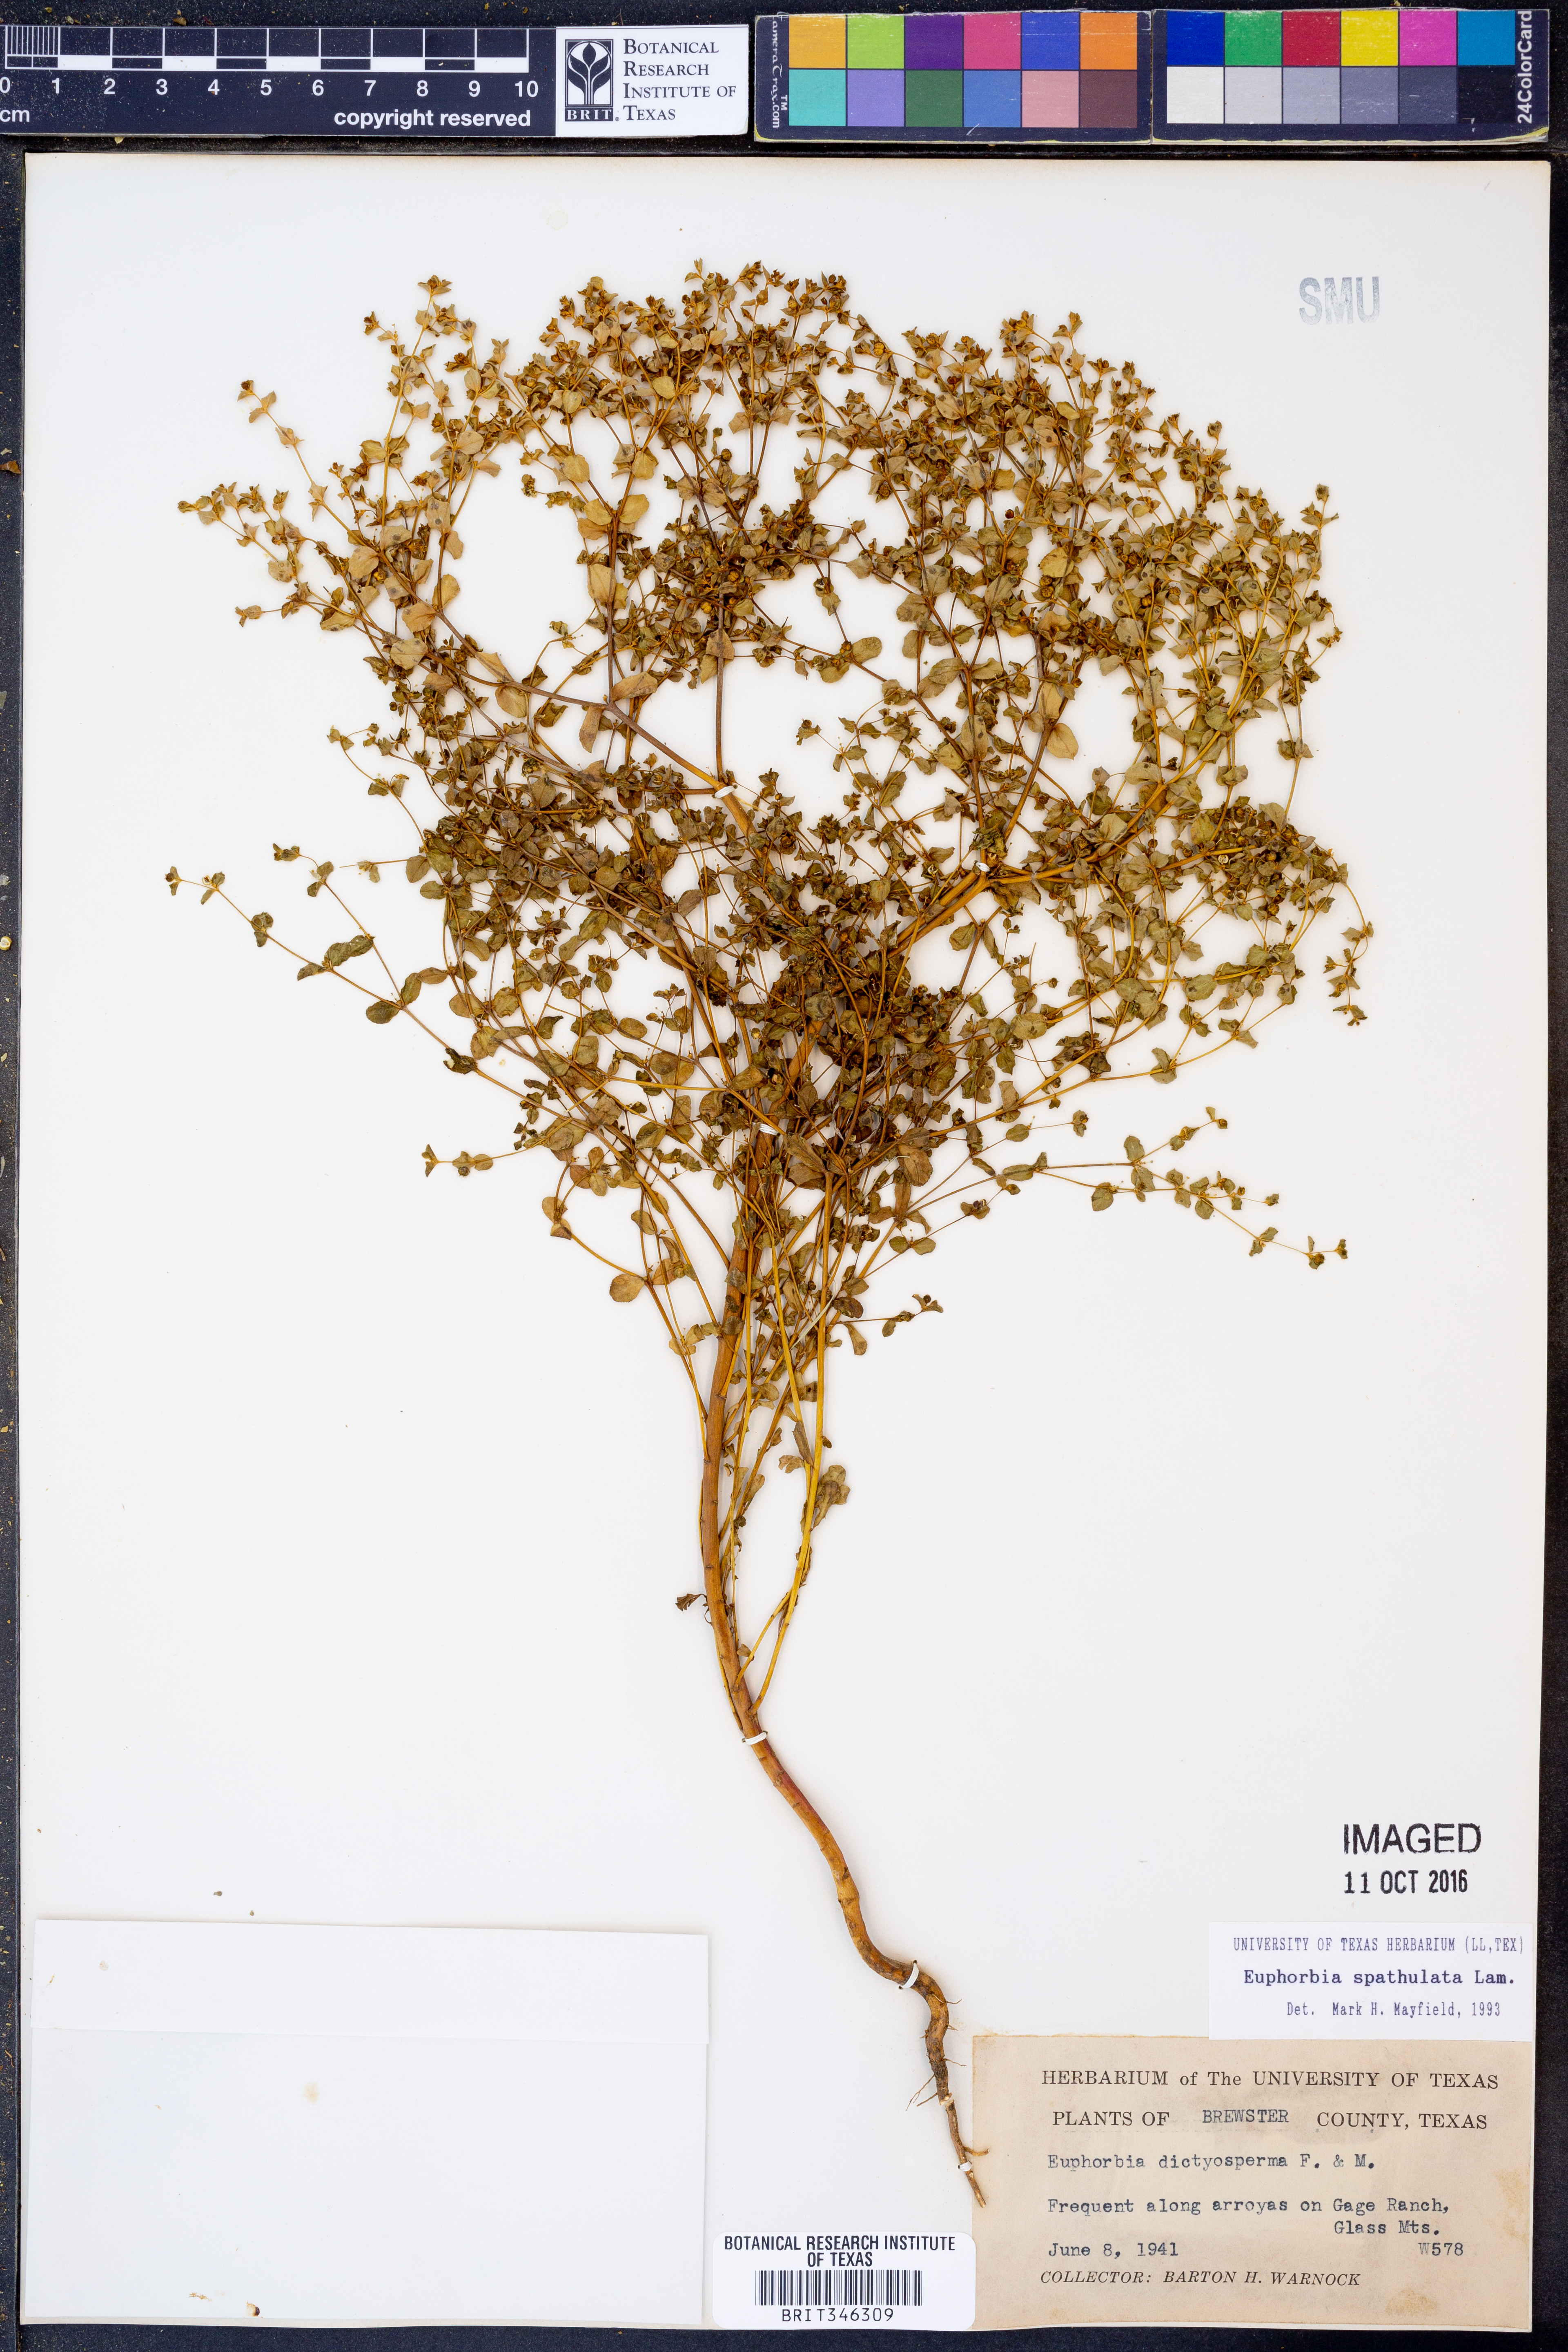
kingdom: Plantae
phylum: Tracheophyta
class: Magnoliopsida
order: Malpighiales
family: Euphorbiaceae
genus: Euphorbia
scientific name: Euphorbia spathulata
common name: Blunt spurge
